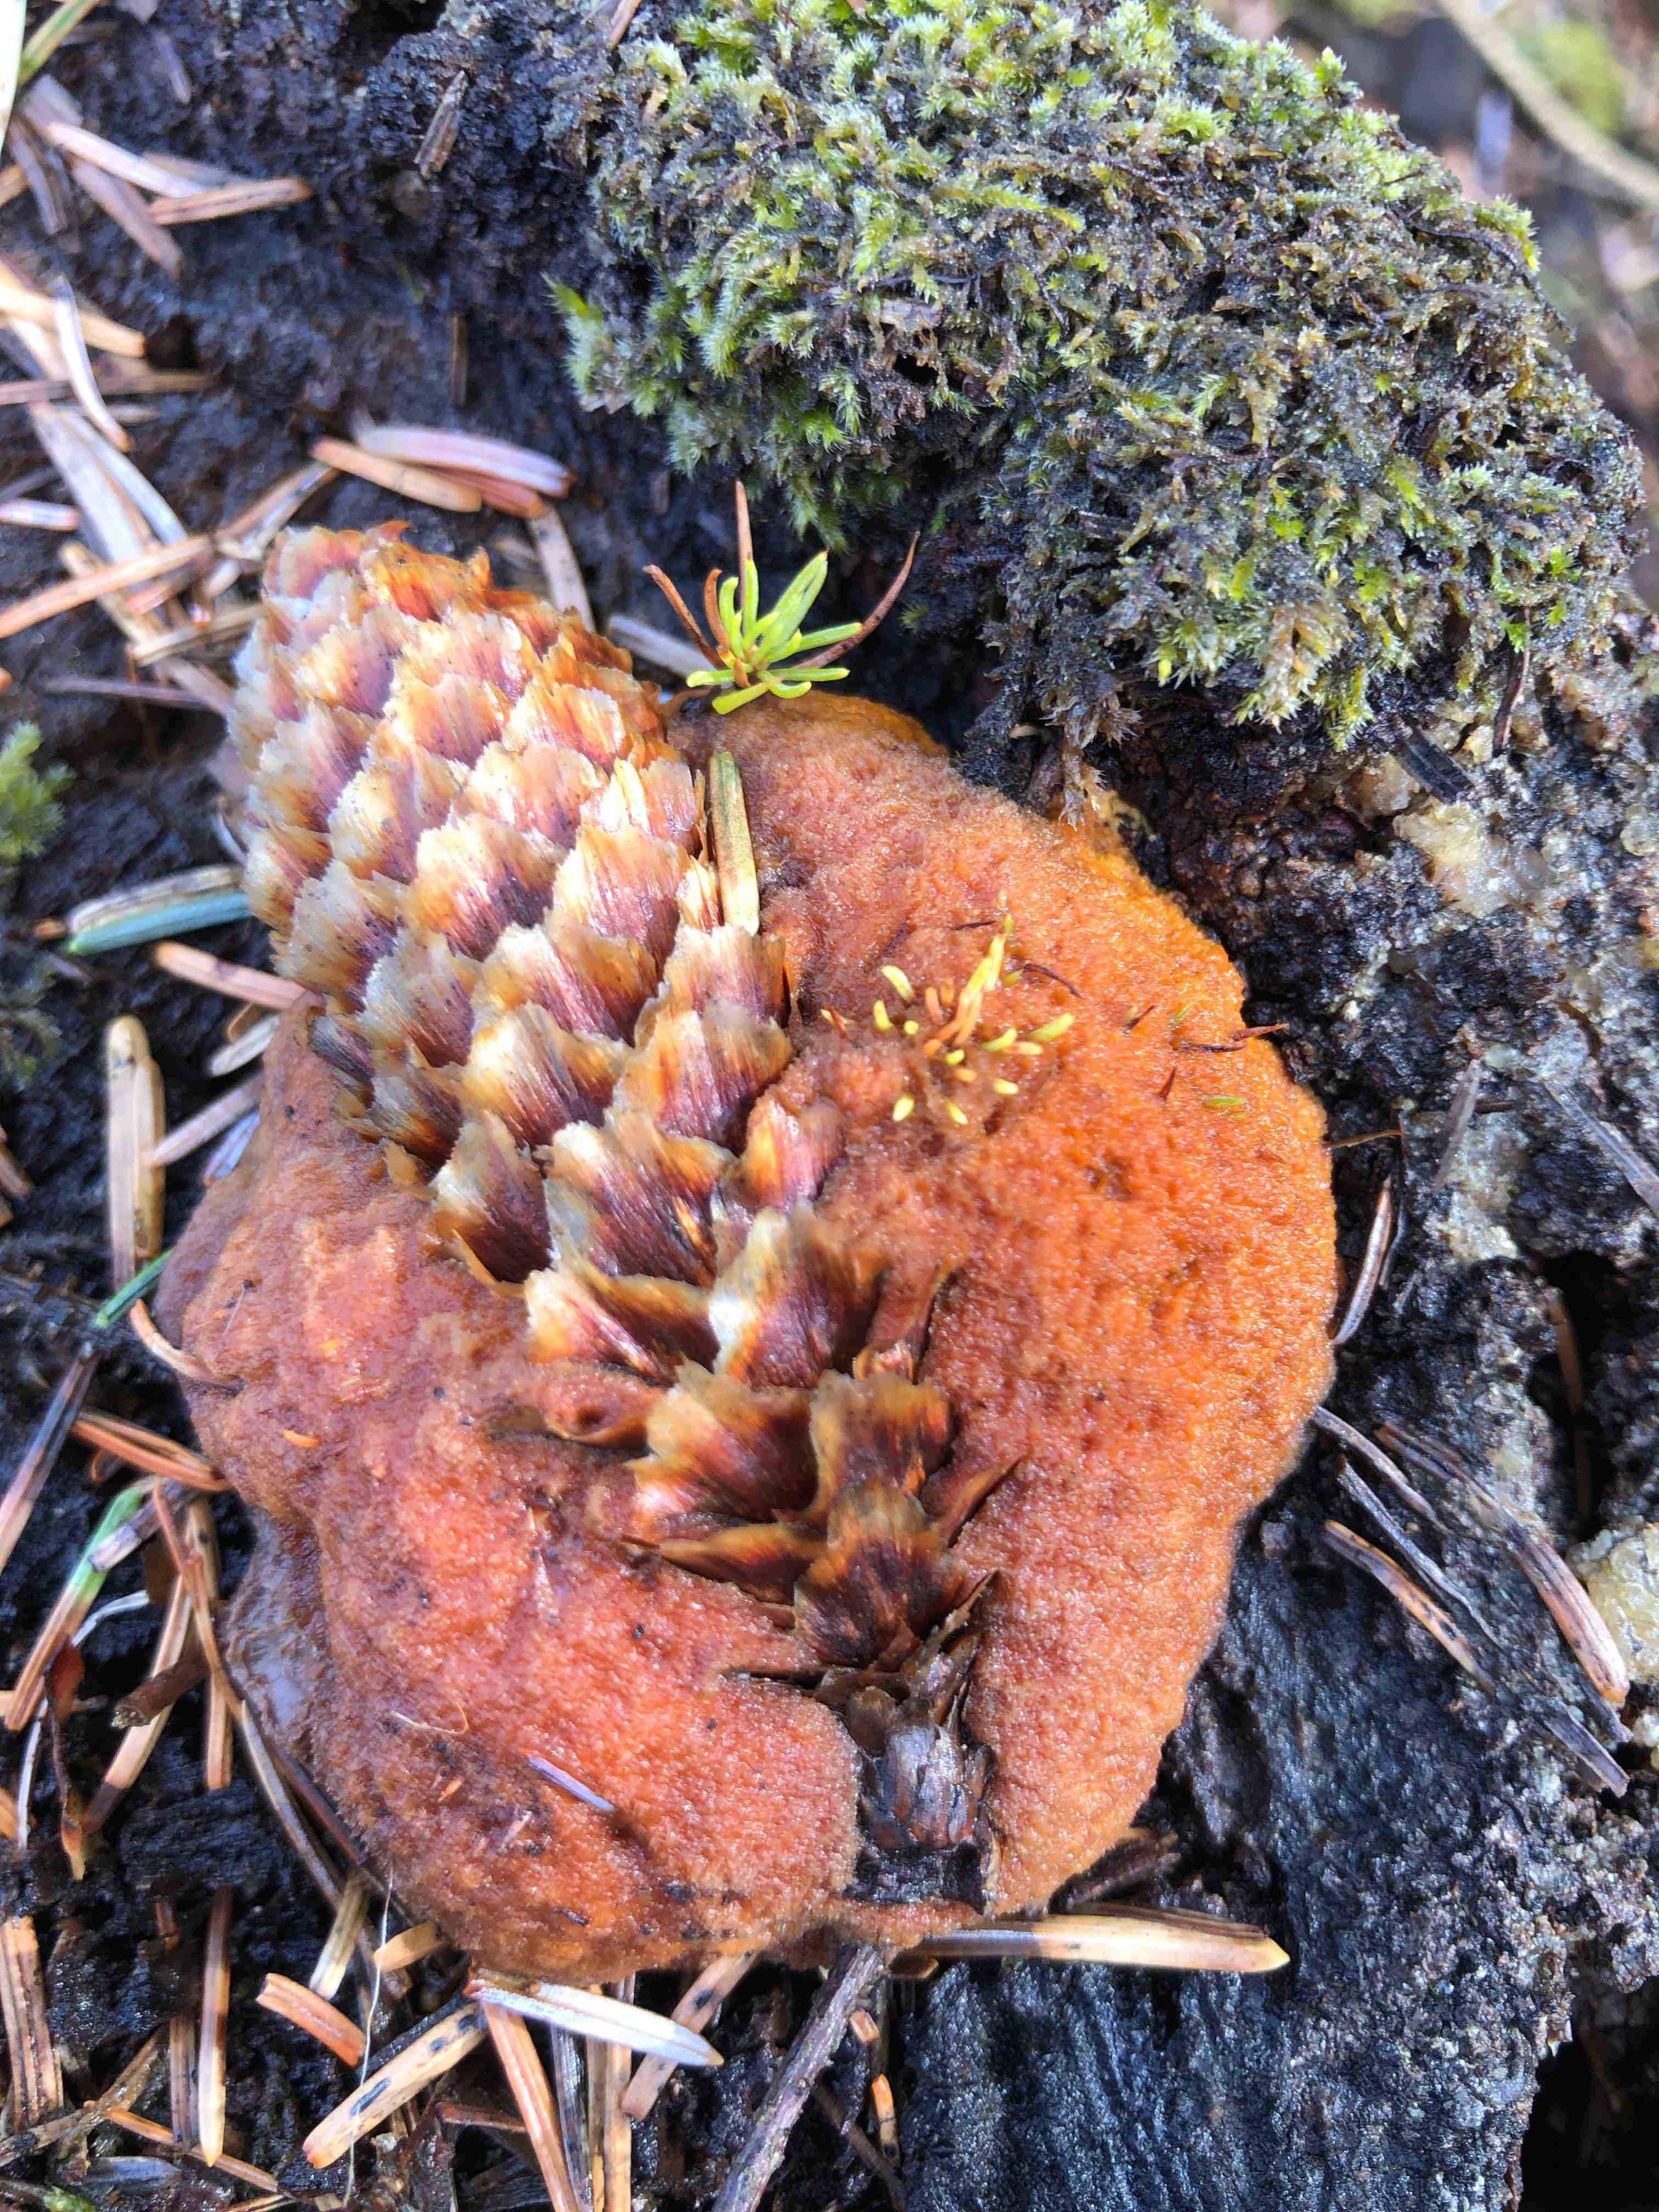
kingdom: Fungi
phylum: Basidiomycota
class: Agaricomycetes
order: Gloeophyllales
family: Gloeophyllaceae
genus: Gloeophyllum
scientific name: Gloeophyllum odoratum
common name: duftende korkhat
